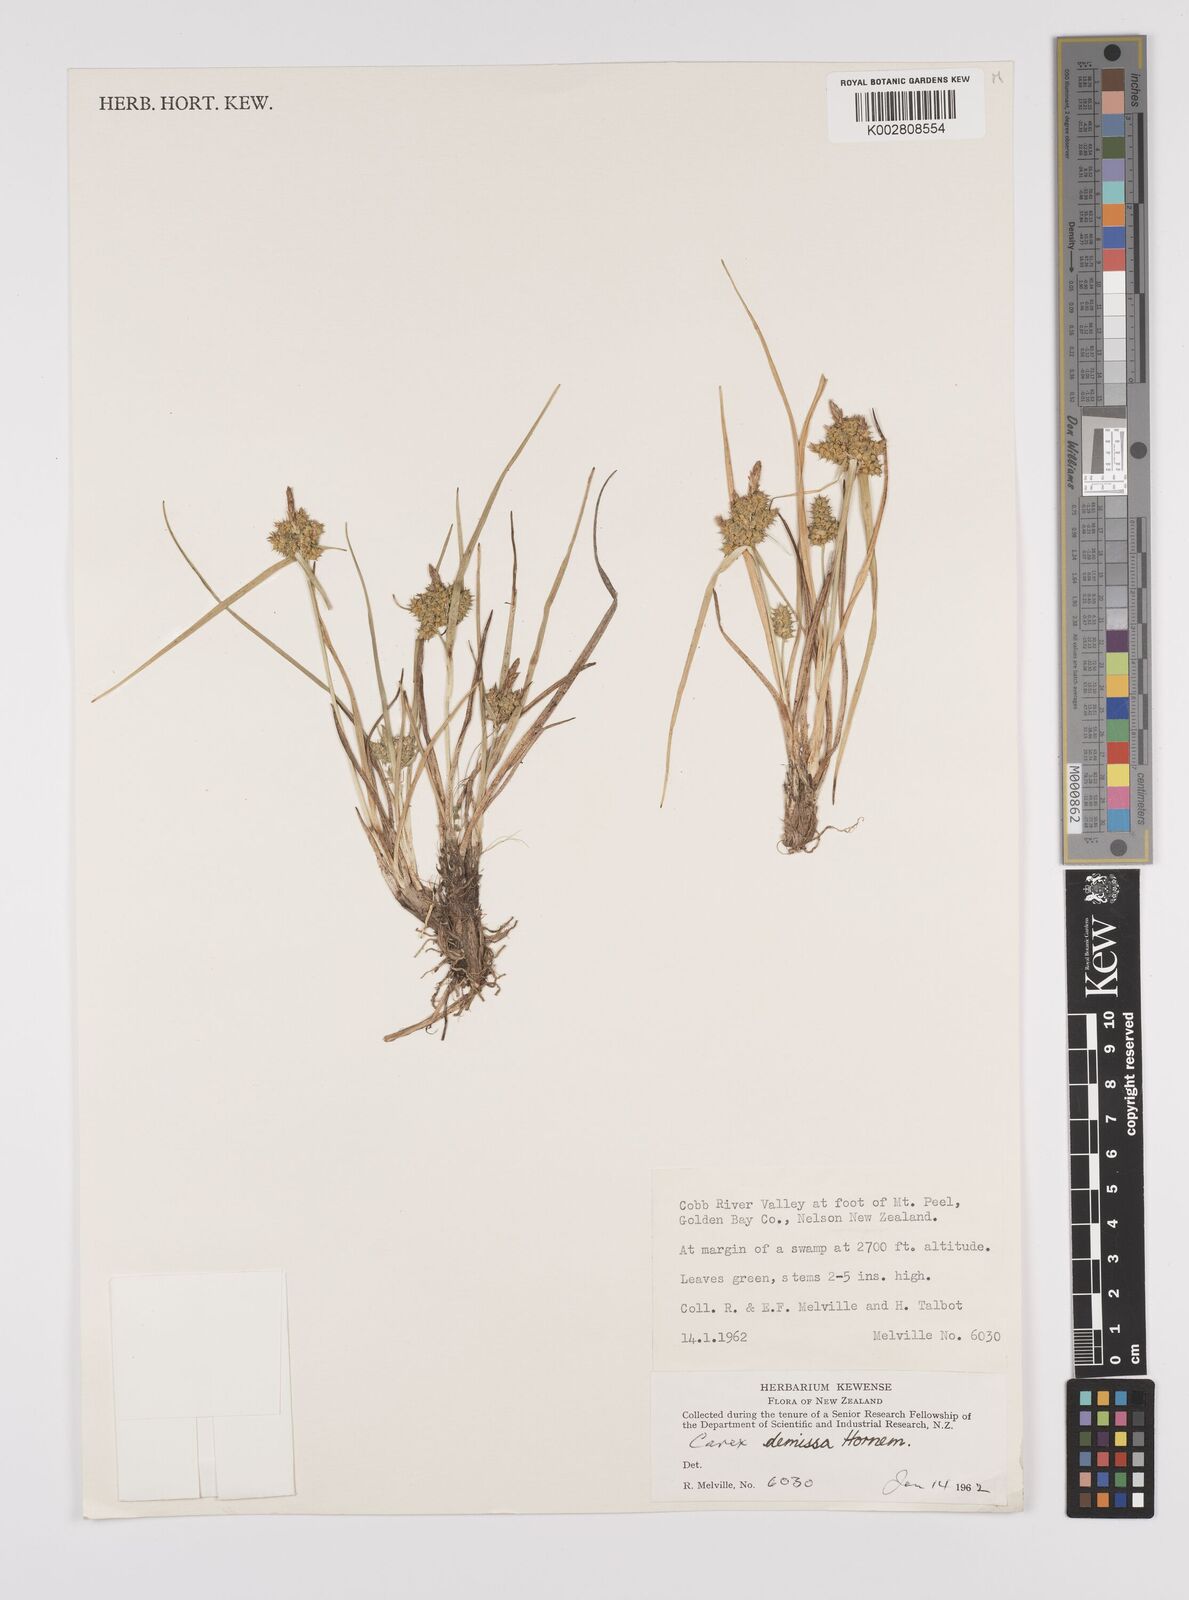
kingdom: Plantae
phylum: Tracheophyta
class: Liliopsida
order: Poales
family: Cyperaceae
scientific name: Cyperaceae
